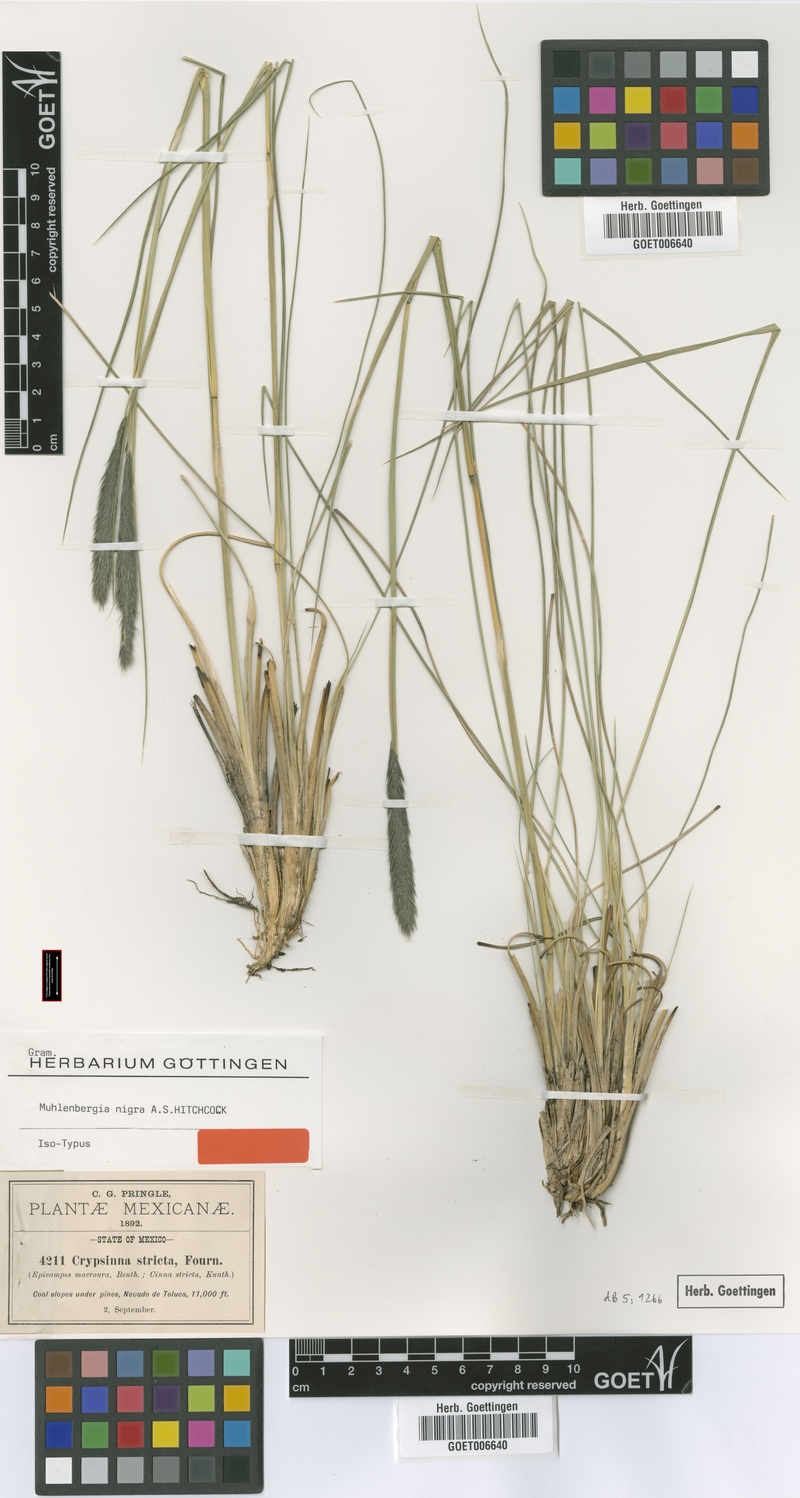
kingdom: Plantae
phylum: Tracheophyta
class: Liliopsida
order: Poales
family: Poaceae
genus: Muhlenbergia
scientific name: Muhlenbergia nigra
